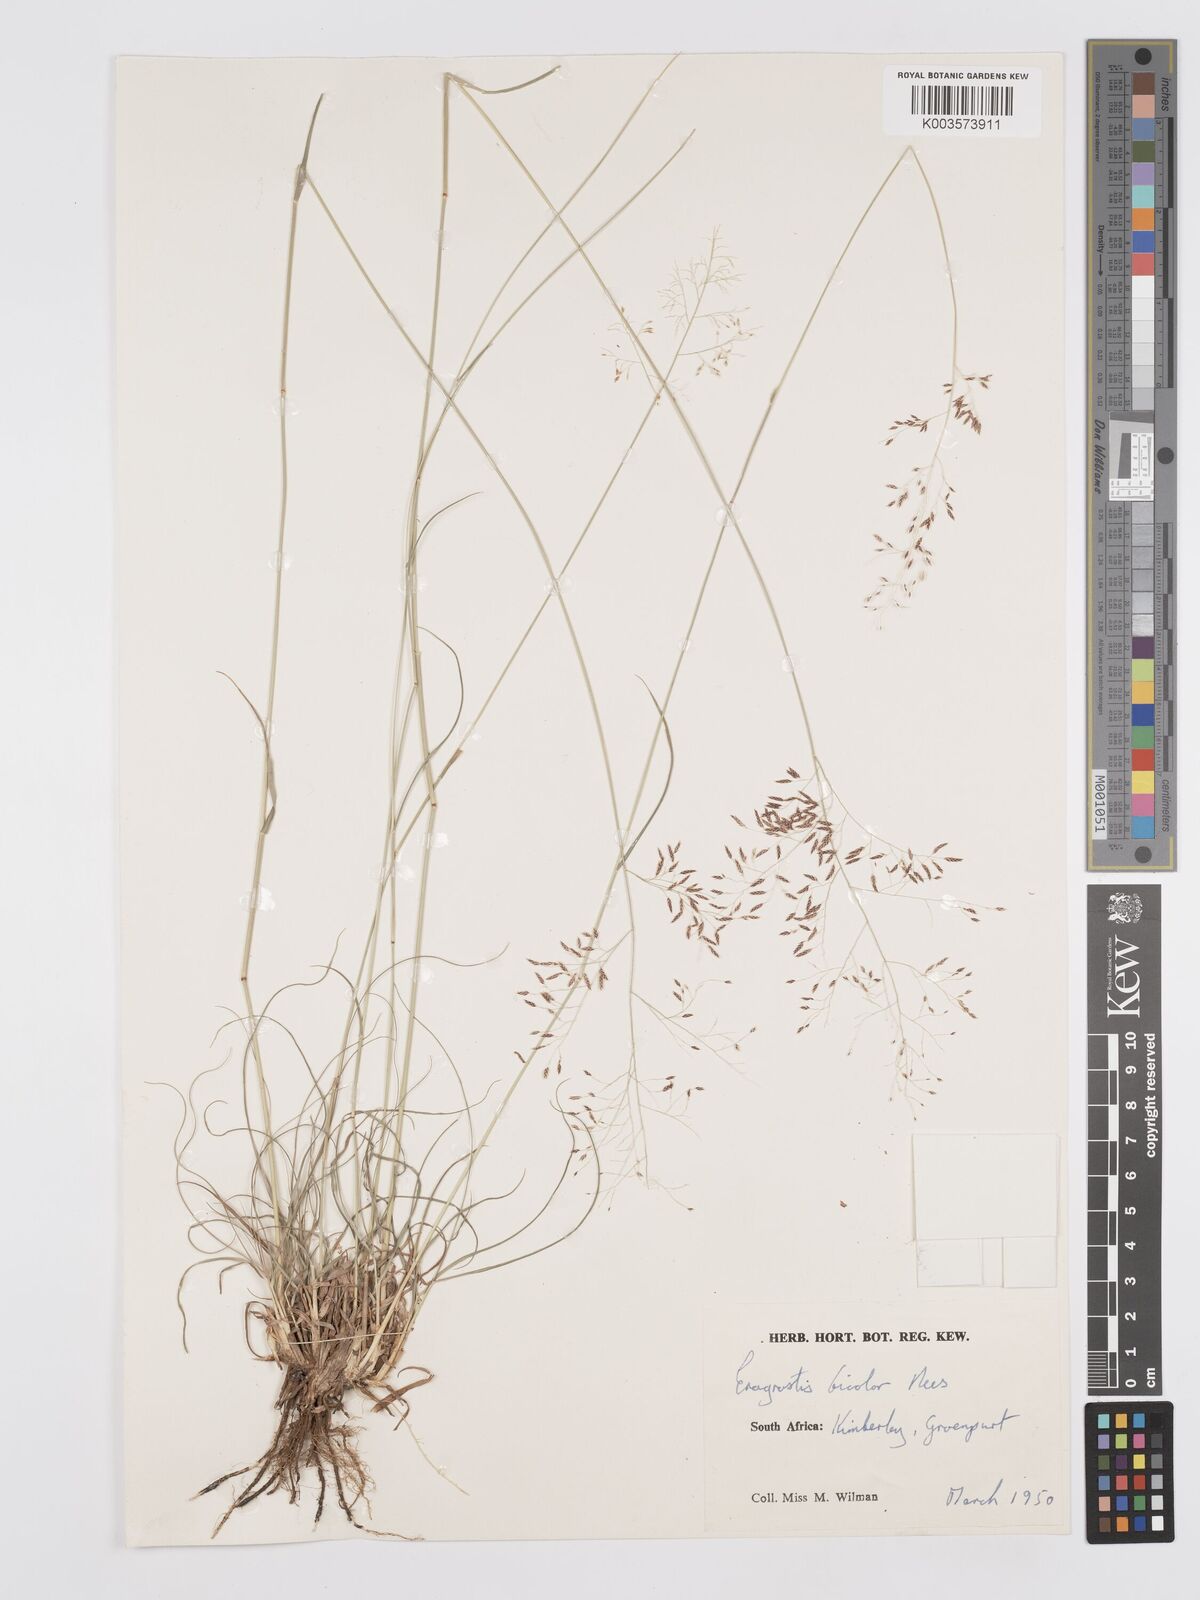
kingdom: Plantae
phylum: Tracheophyta
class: Liliopsida
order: Poales
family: Poaceae
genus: Eragrostis
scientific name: Eragrostis
